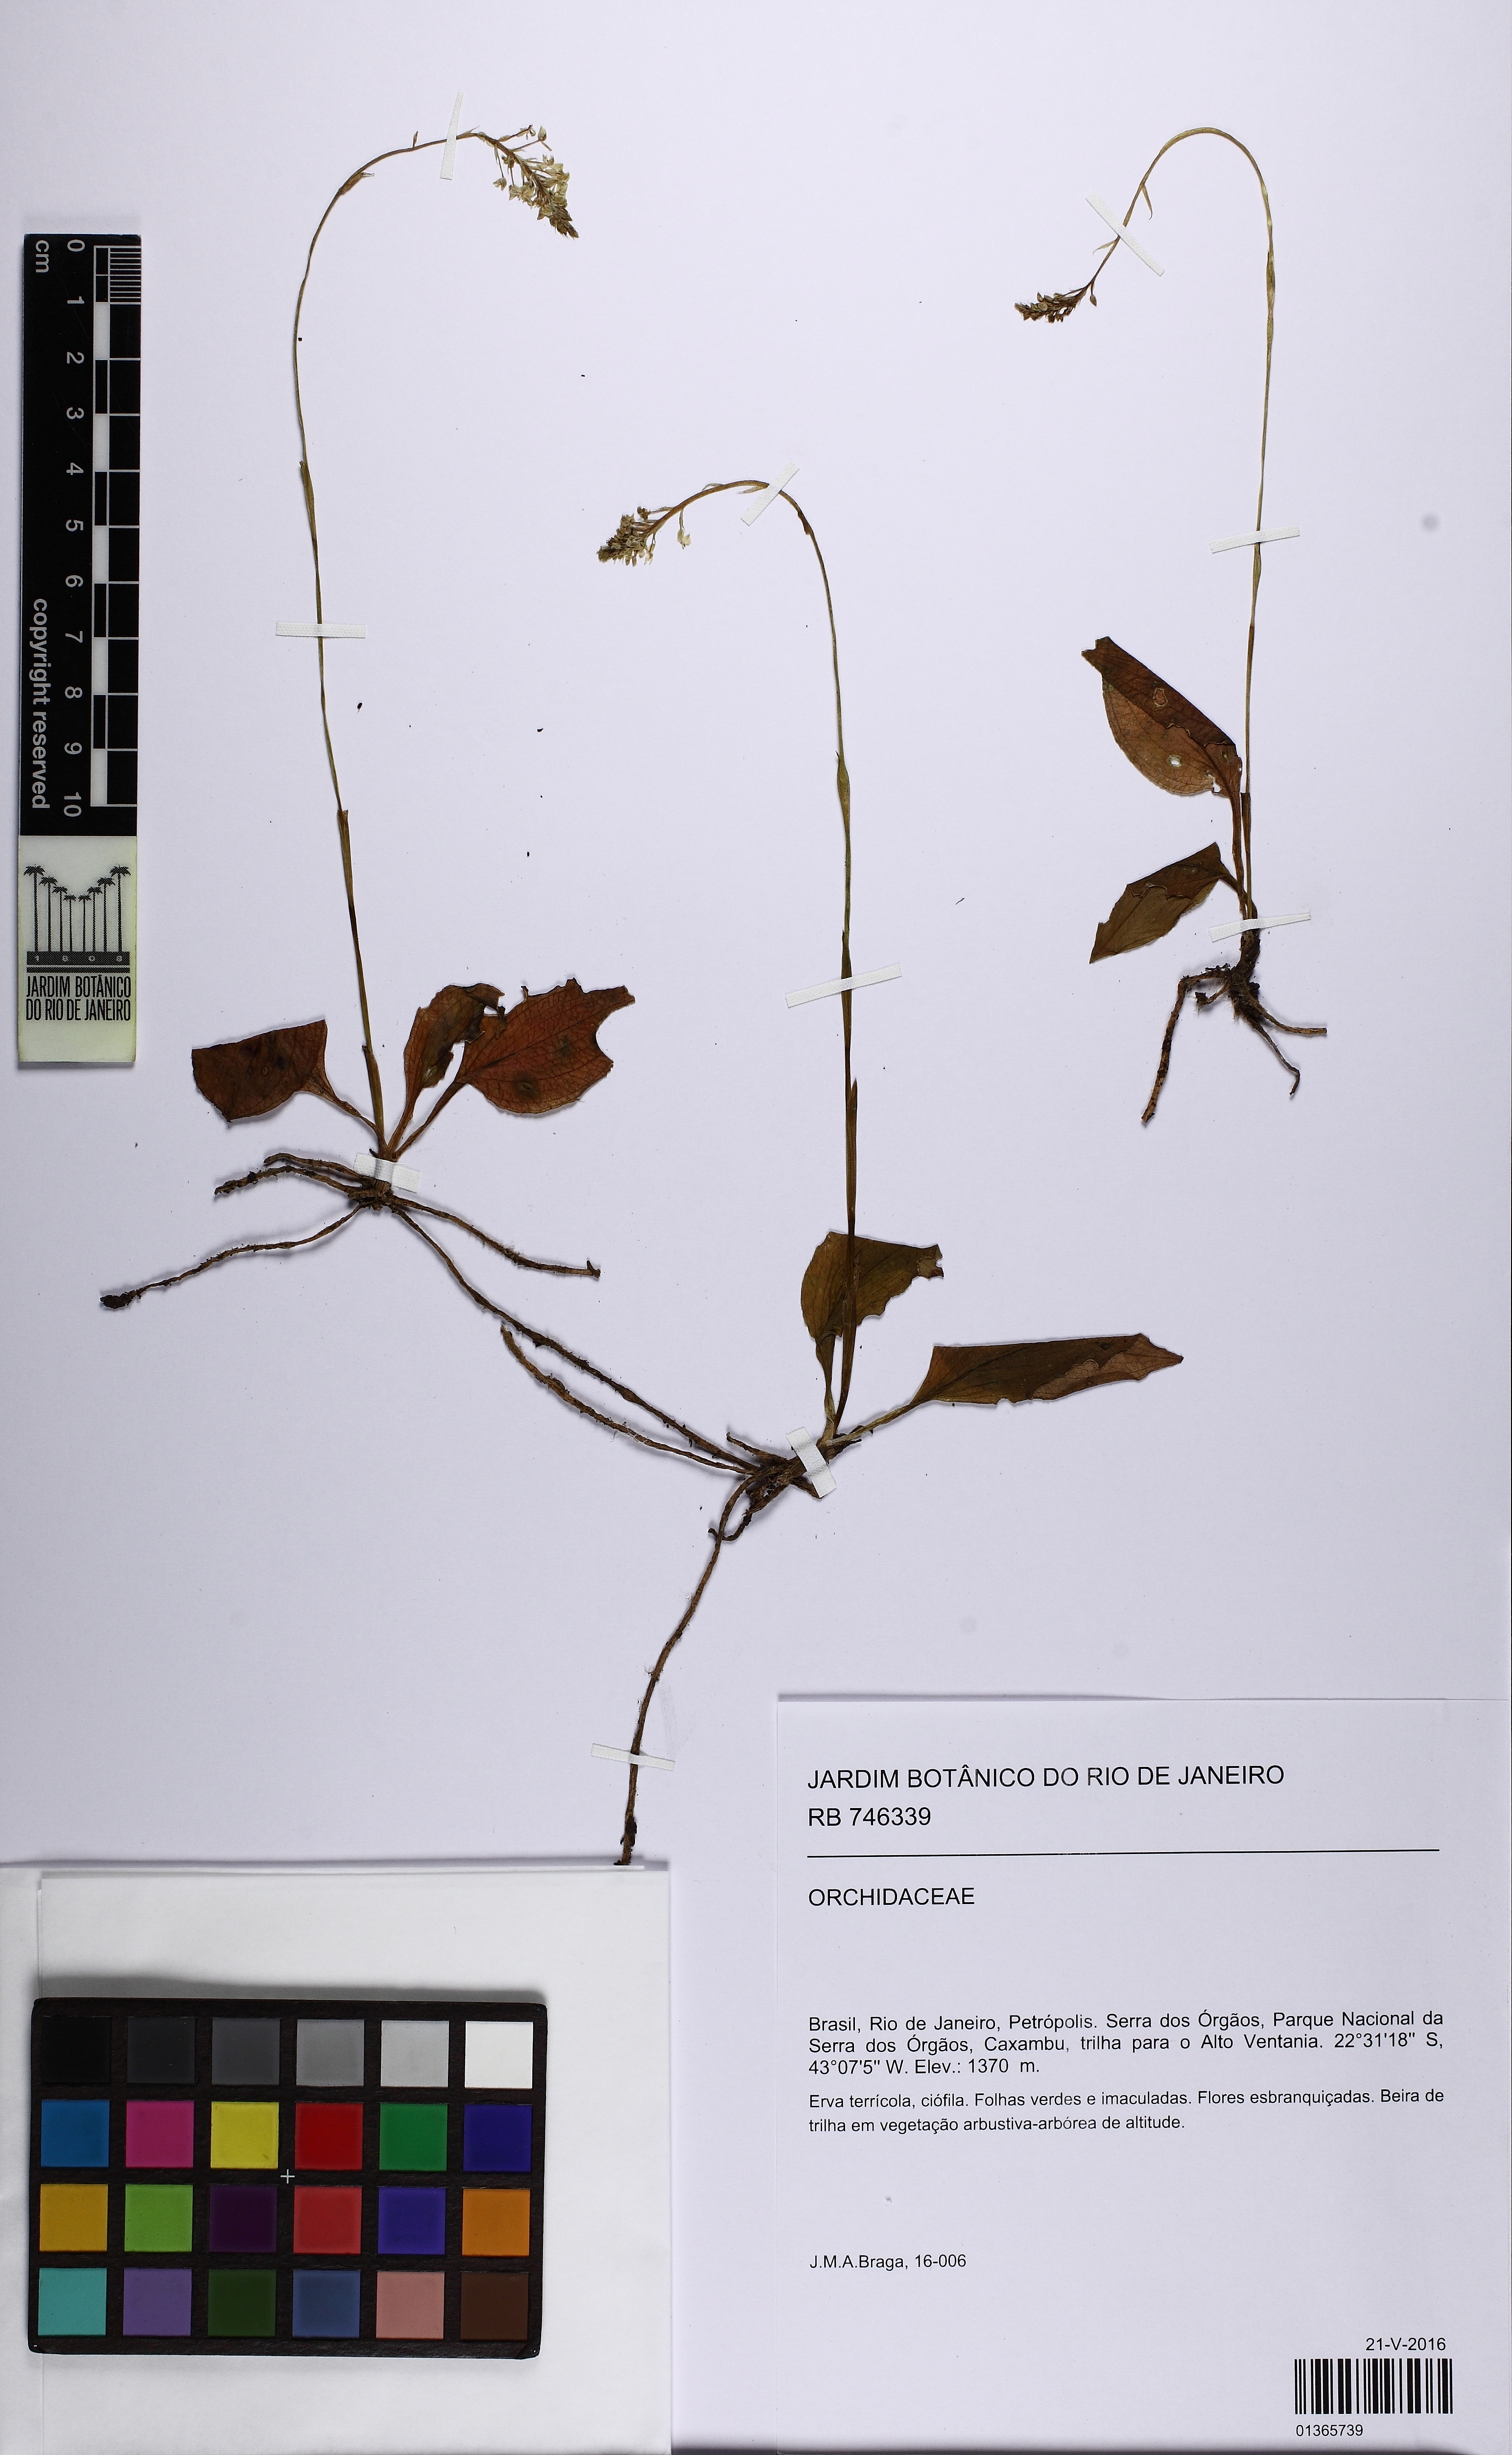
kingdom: Plantae
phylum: Tracheophyta
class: Liliopsida
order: Asparagales
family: Orchidaceae
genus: Cranichis
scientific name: Cranichis
